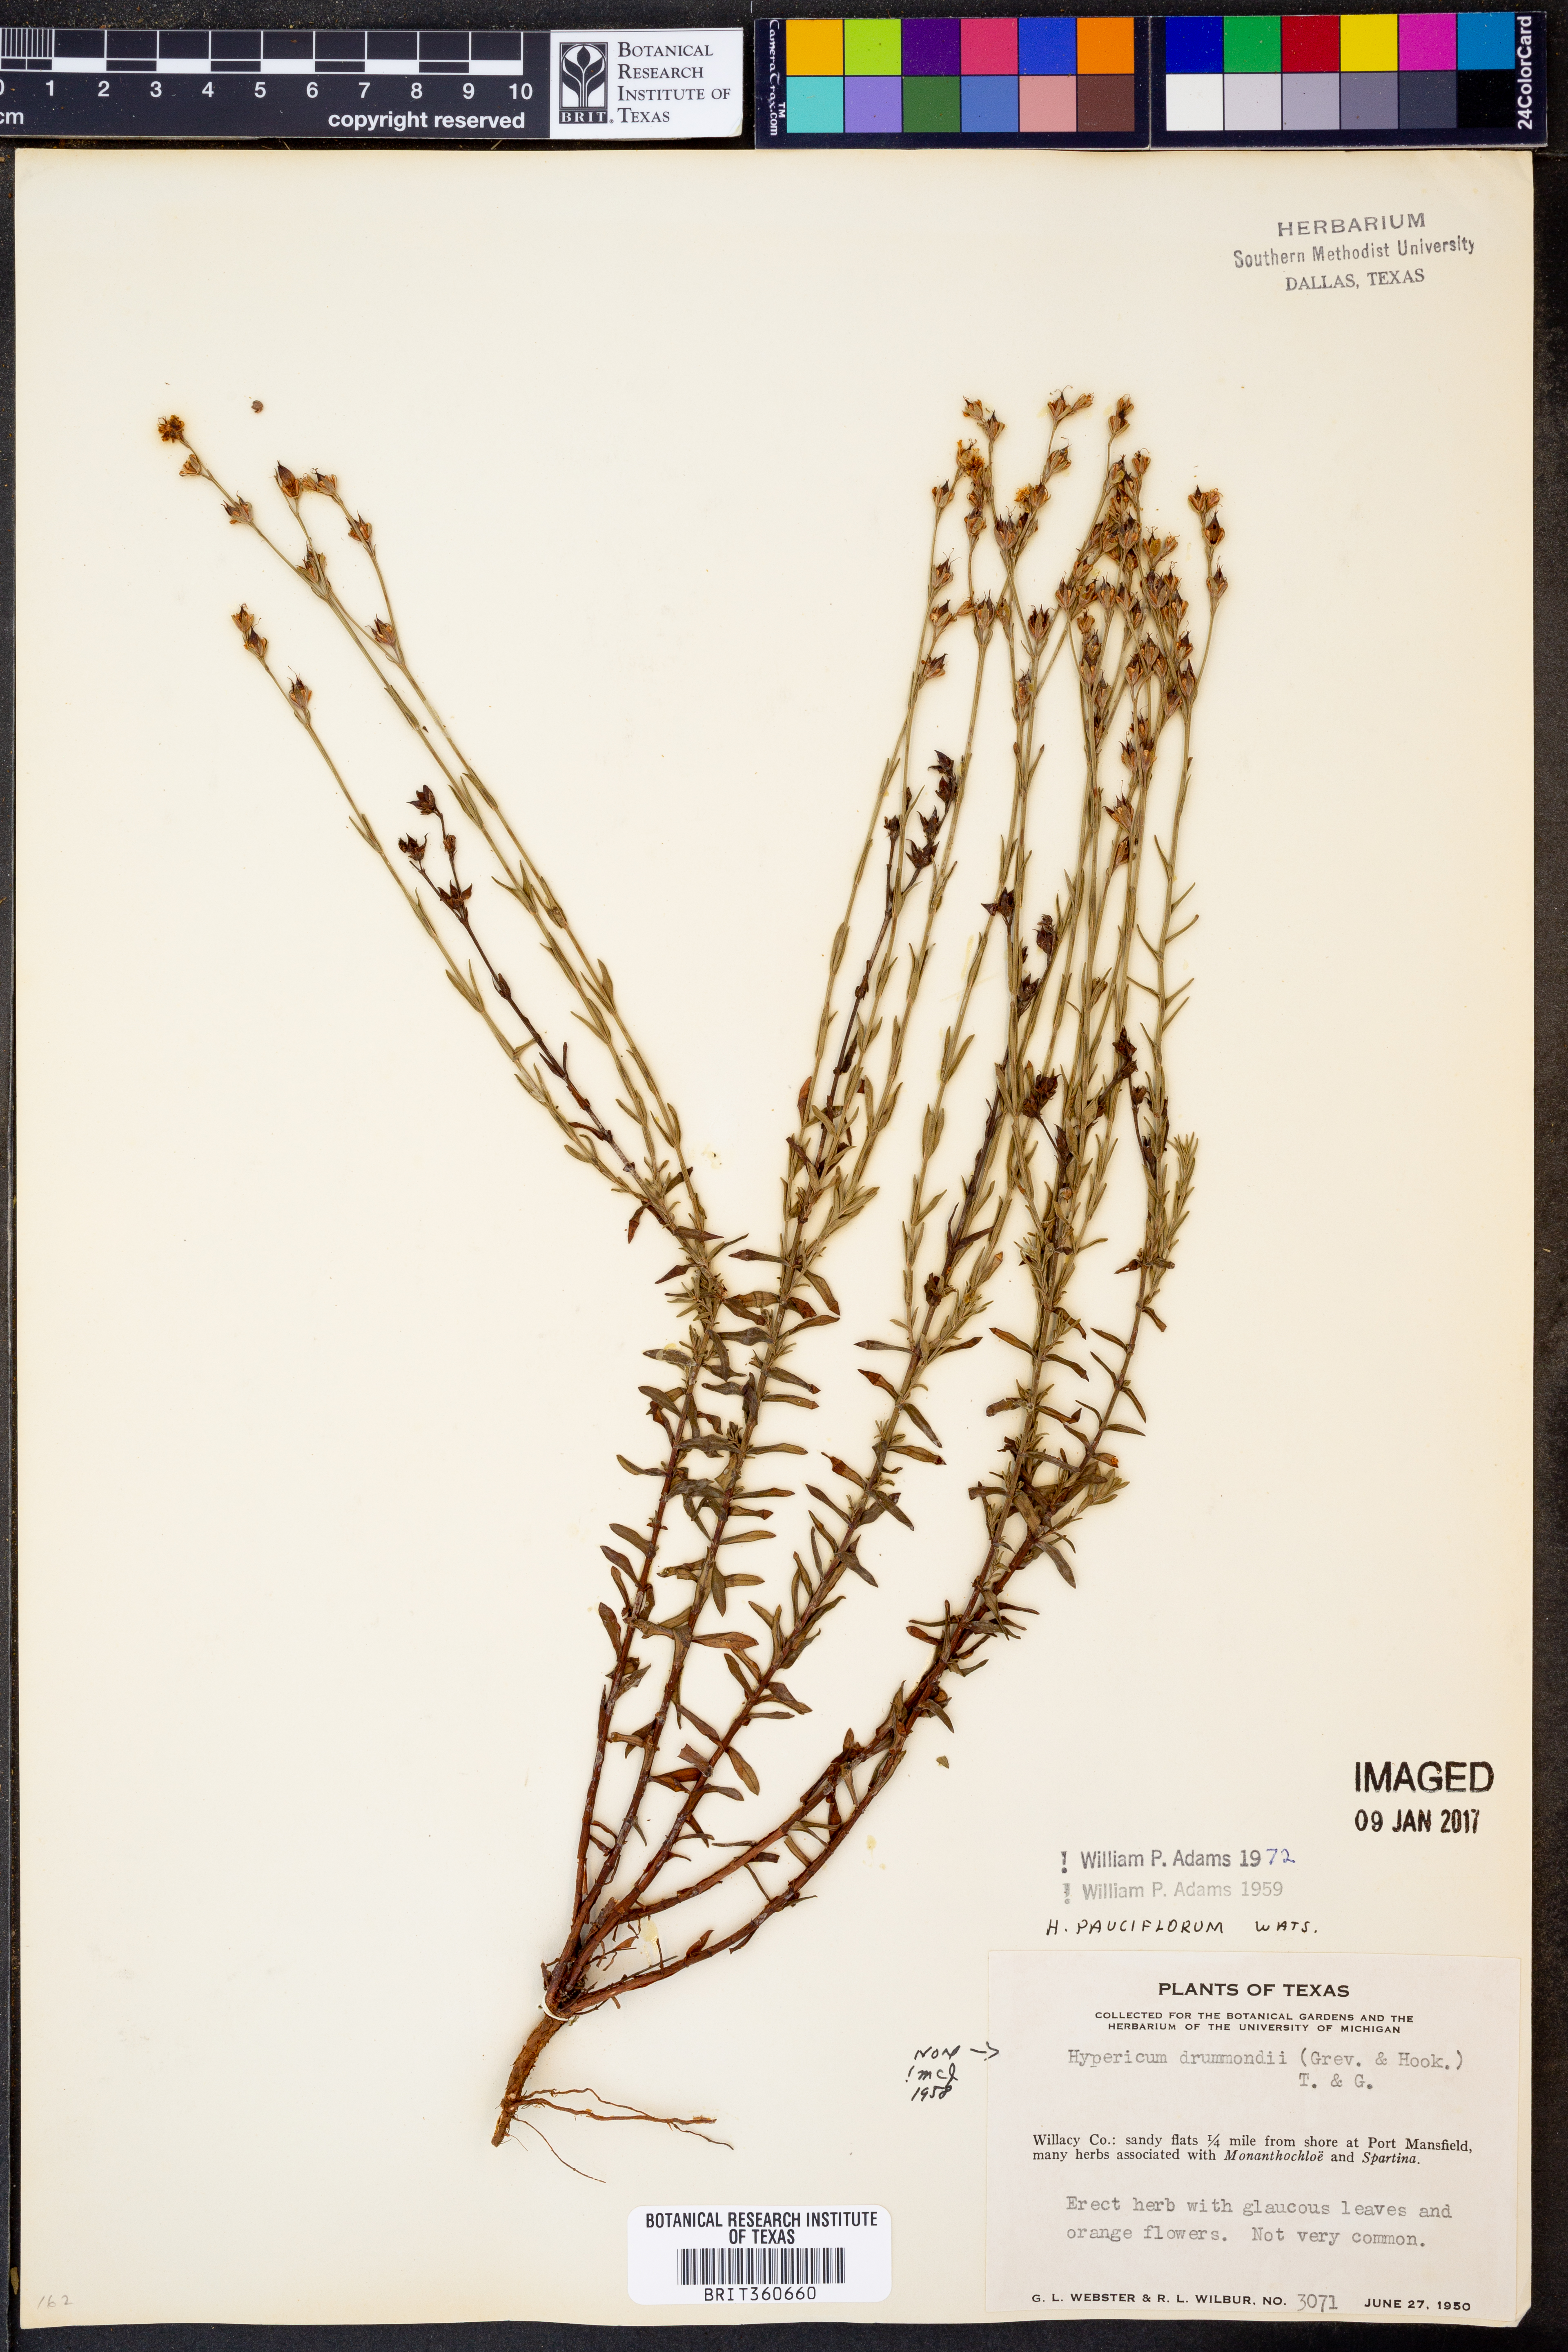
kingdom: Plantae
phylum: Tracheophyta
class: Magnoliopsida
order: Malpighiales
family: Hypericaceae
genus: Hypericum
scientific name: Hypericum pauciflorum
